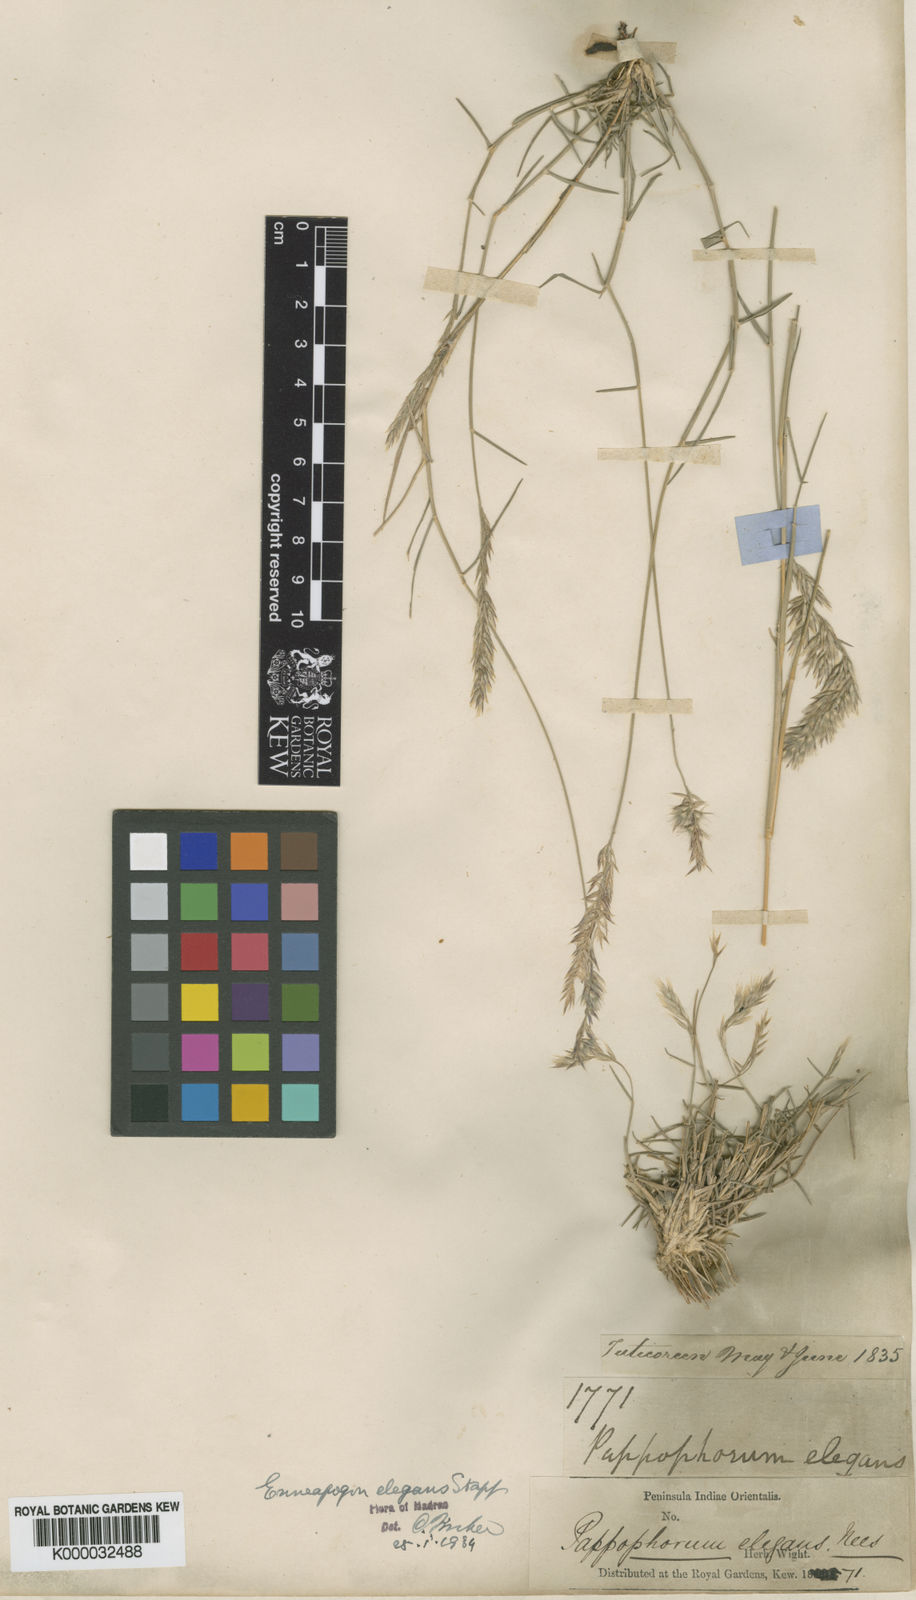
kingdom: Plantae
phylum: Tracheophyta
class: Liliopsida
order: Poales
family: Poaceae
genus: Enneapogon
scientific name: Enneapogon persicus
